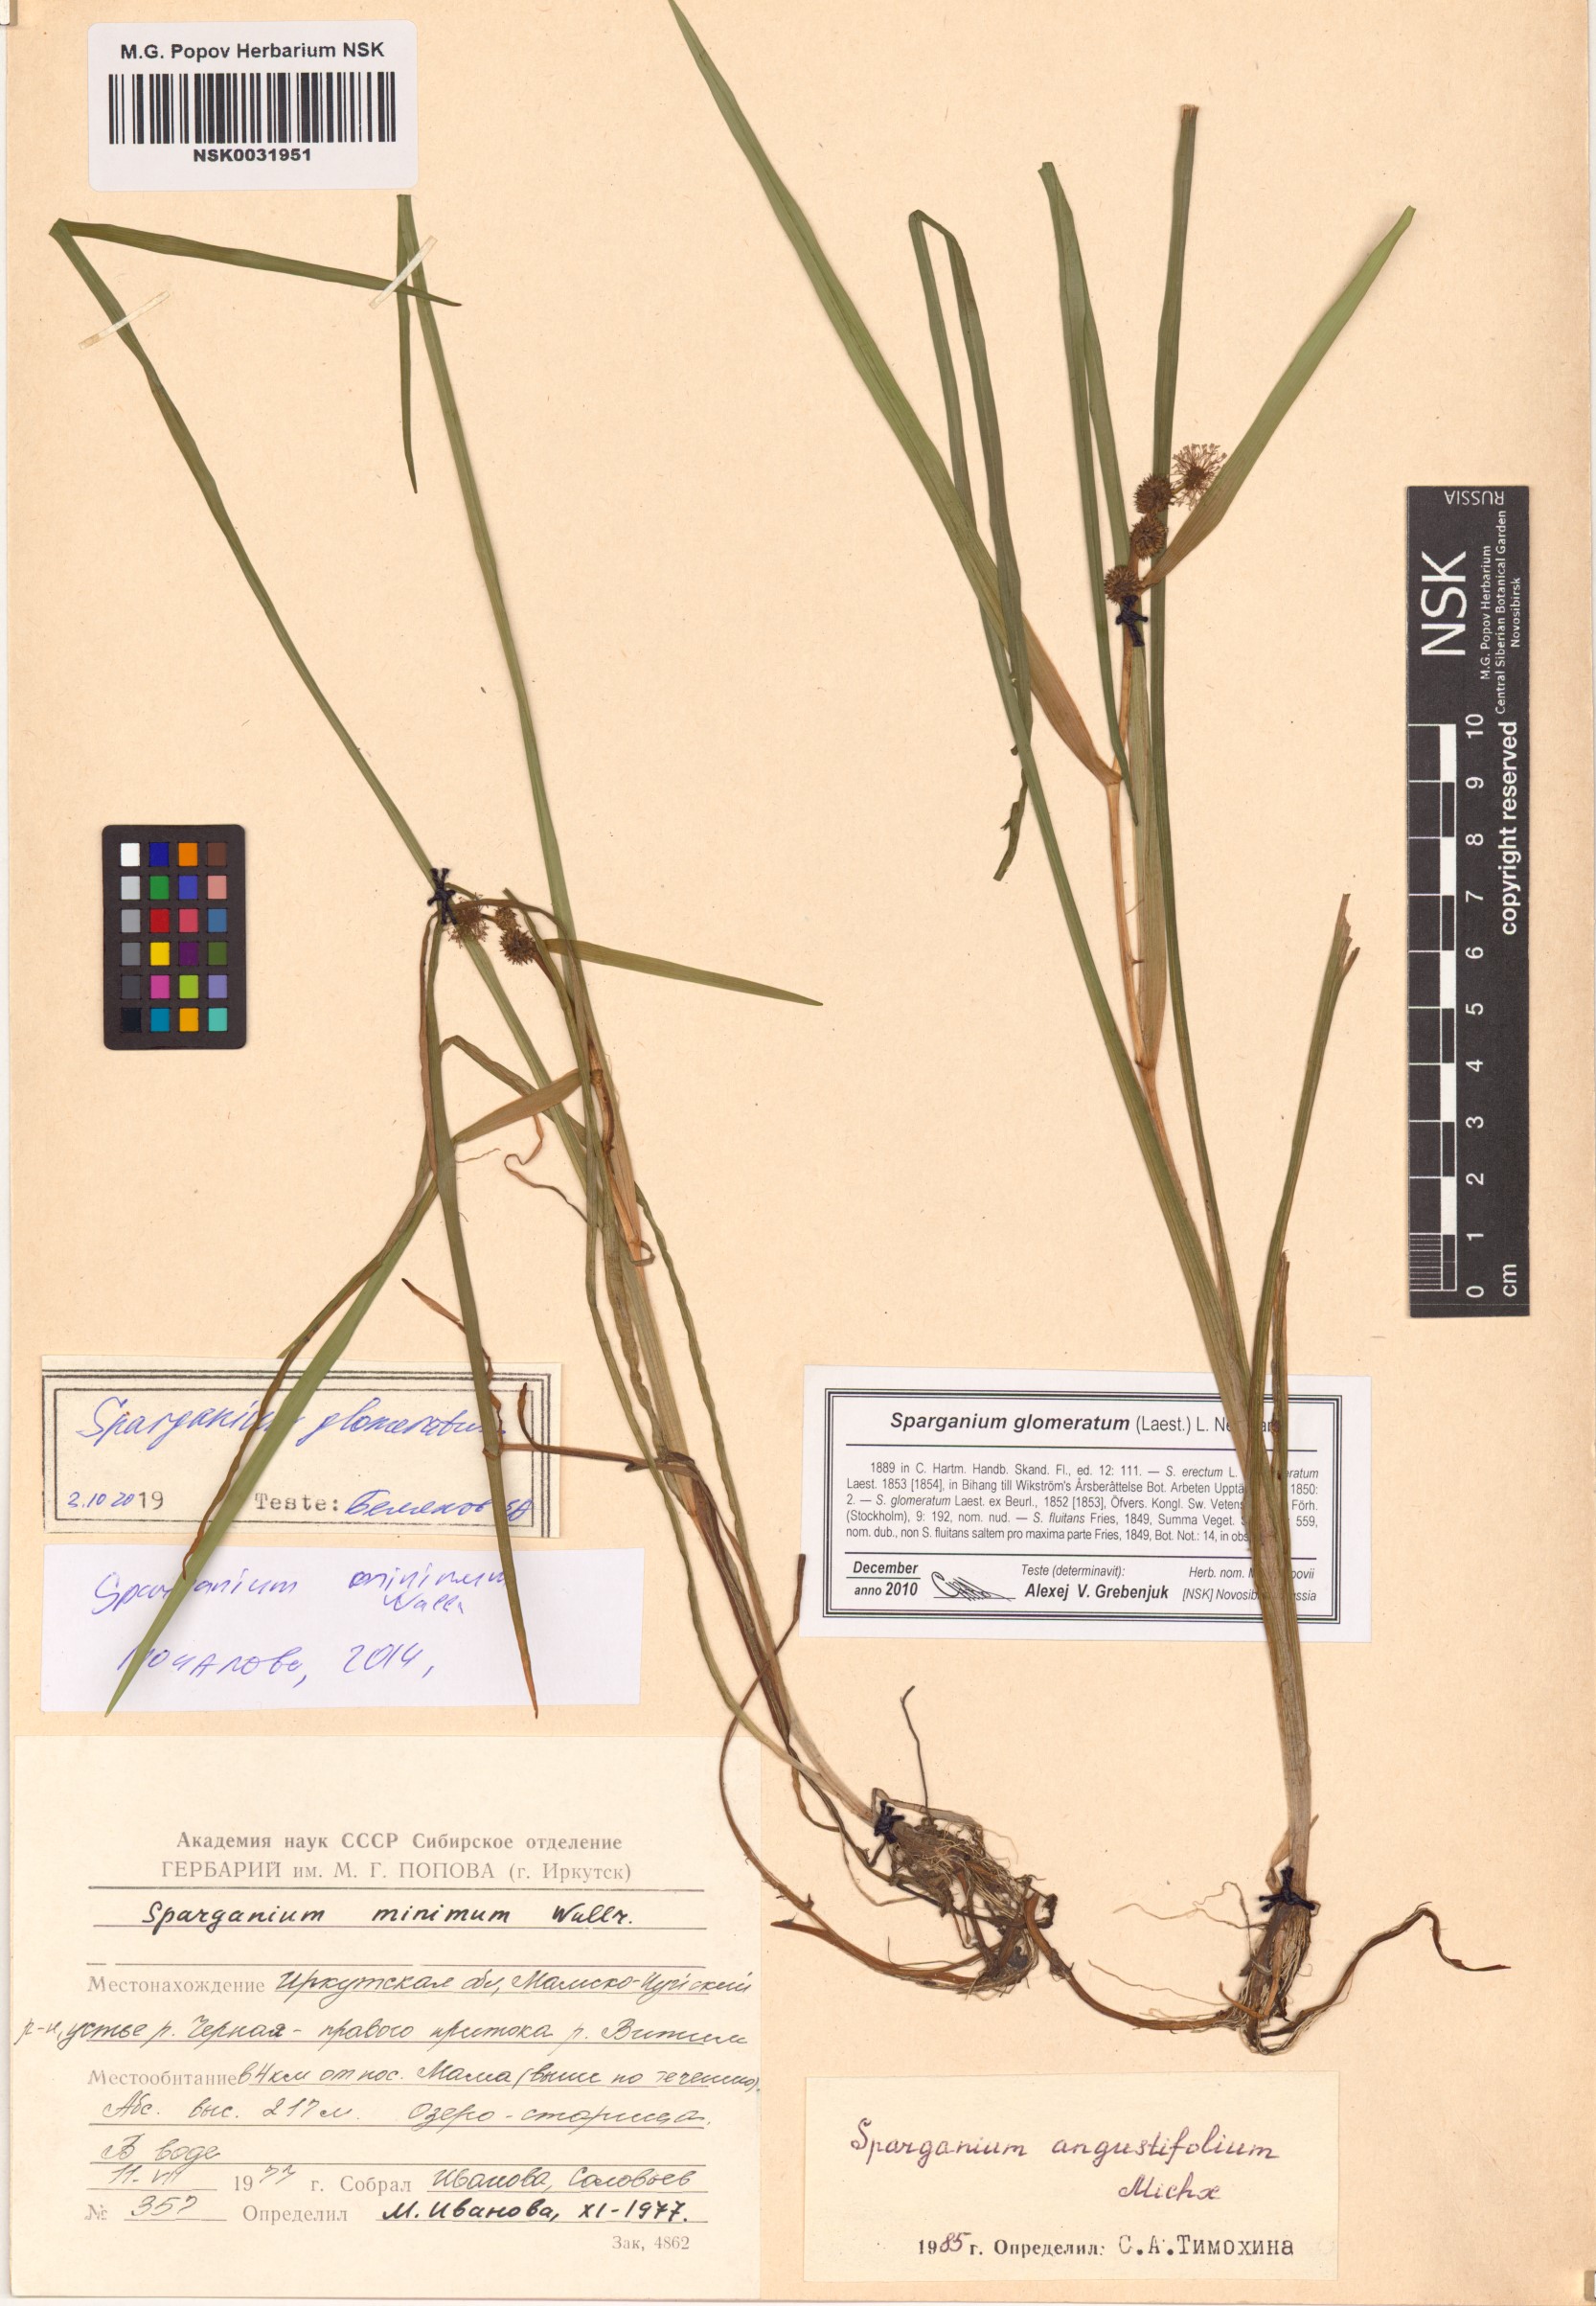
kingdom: Plantae
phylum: Tracheophyta
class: Liliopsida
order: Poales
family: Typhaceae
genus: Sparganium
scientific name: Sparganium glomeratum
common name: Clustered burreed
